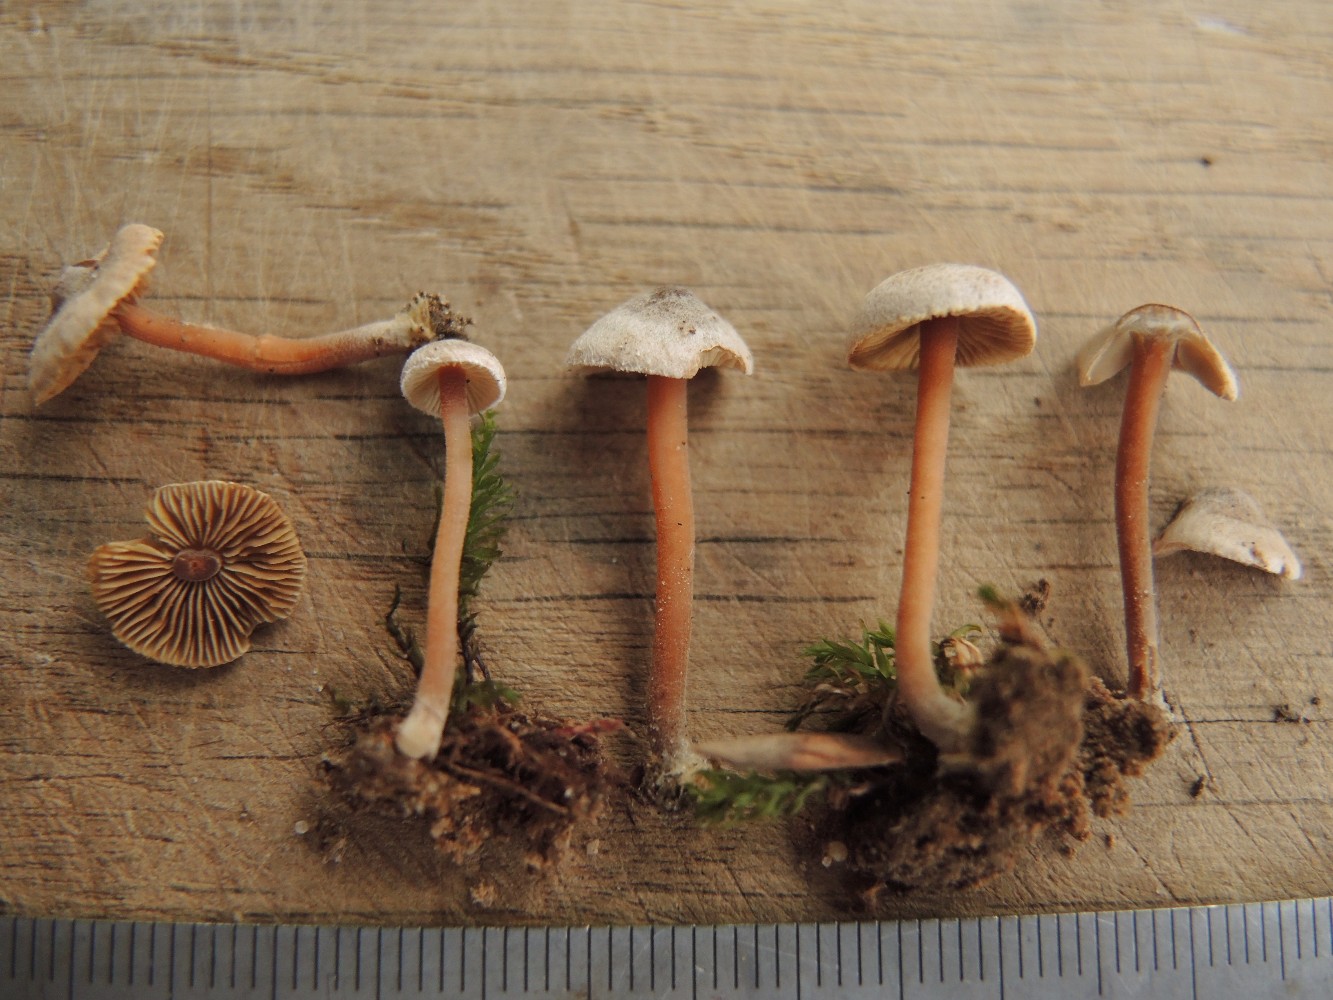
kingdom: Fungi
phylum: Basidiomycota
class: Agaricomycetes
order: Agaricales
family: Inocybaceae
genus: Inocybe
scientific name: Inocybe petiginosa
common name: liden trævlhat
